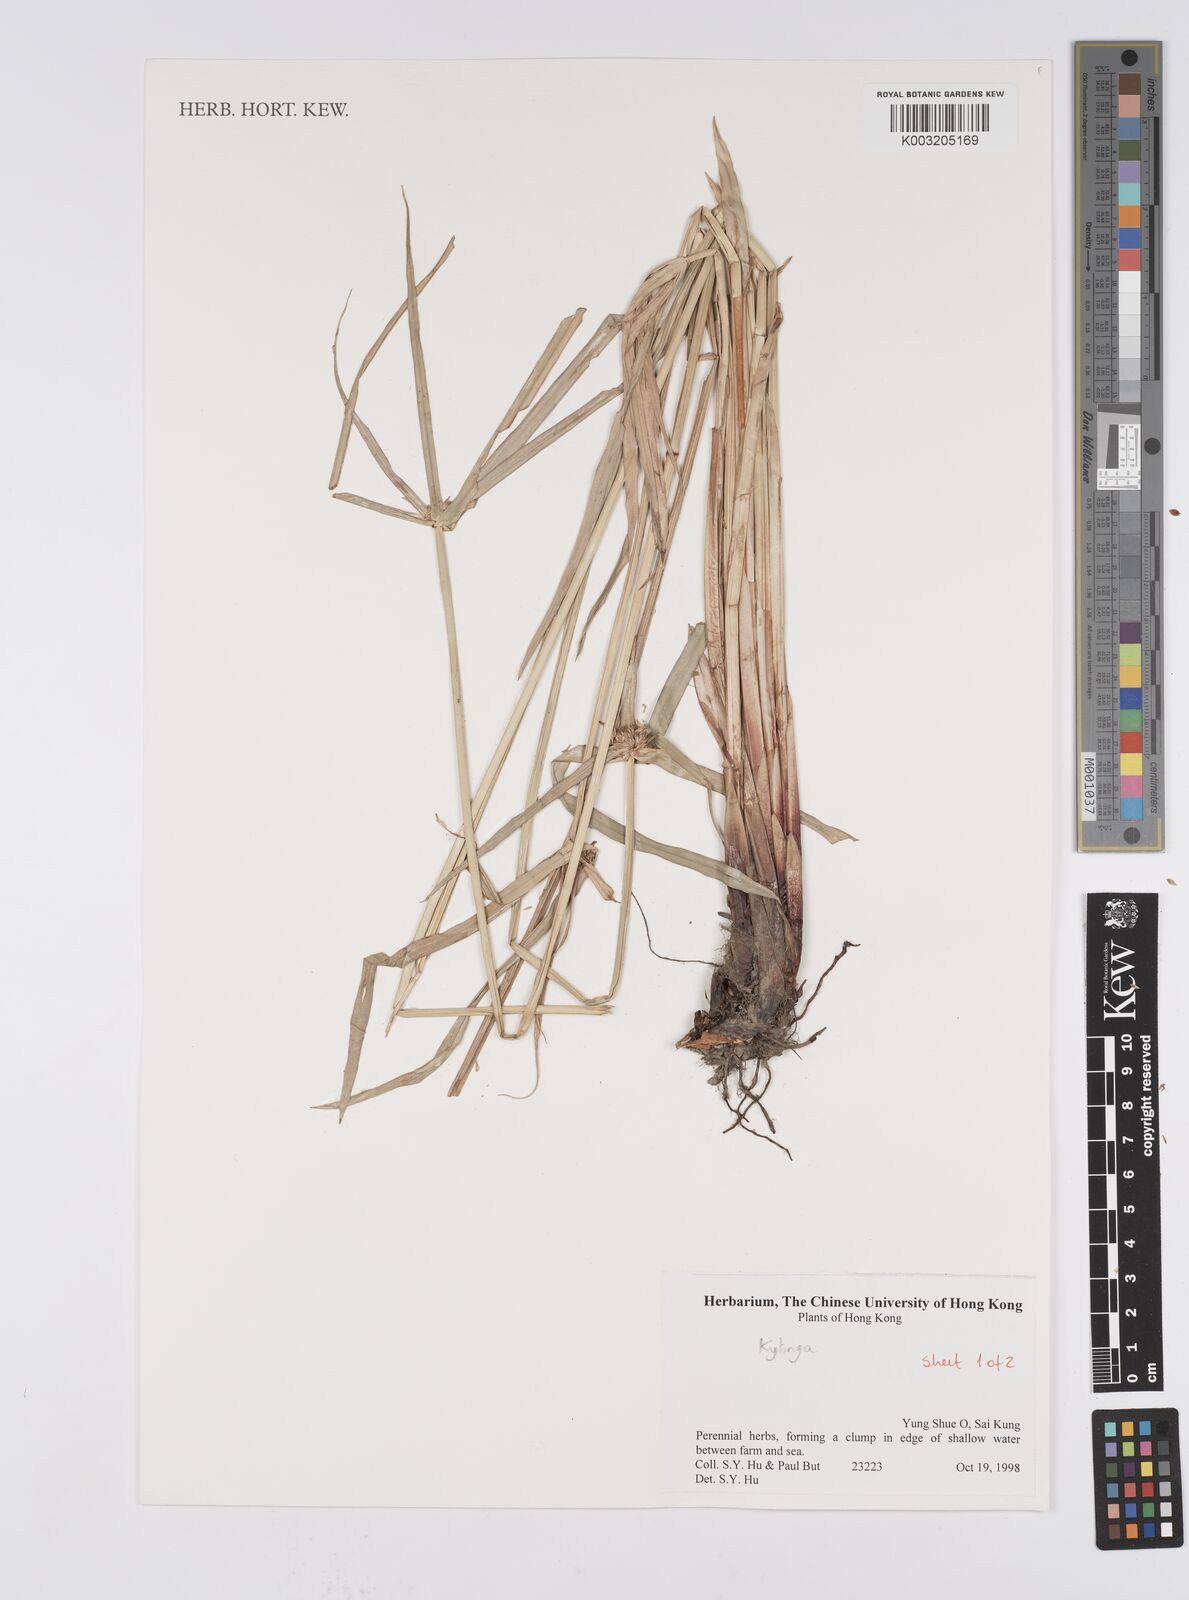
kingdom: Plantae
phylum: Tracheophyta
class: Liliopsida
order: Poales
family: Cyperaceae
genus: Cyperus
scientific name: Cyperus
